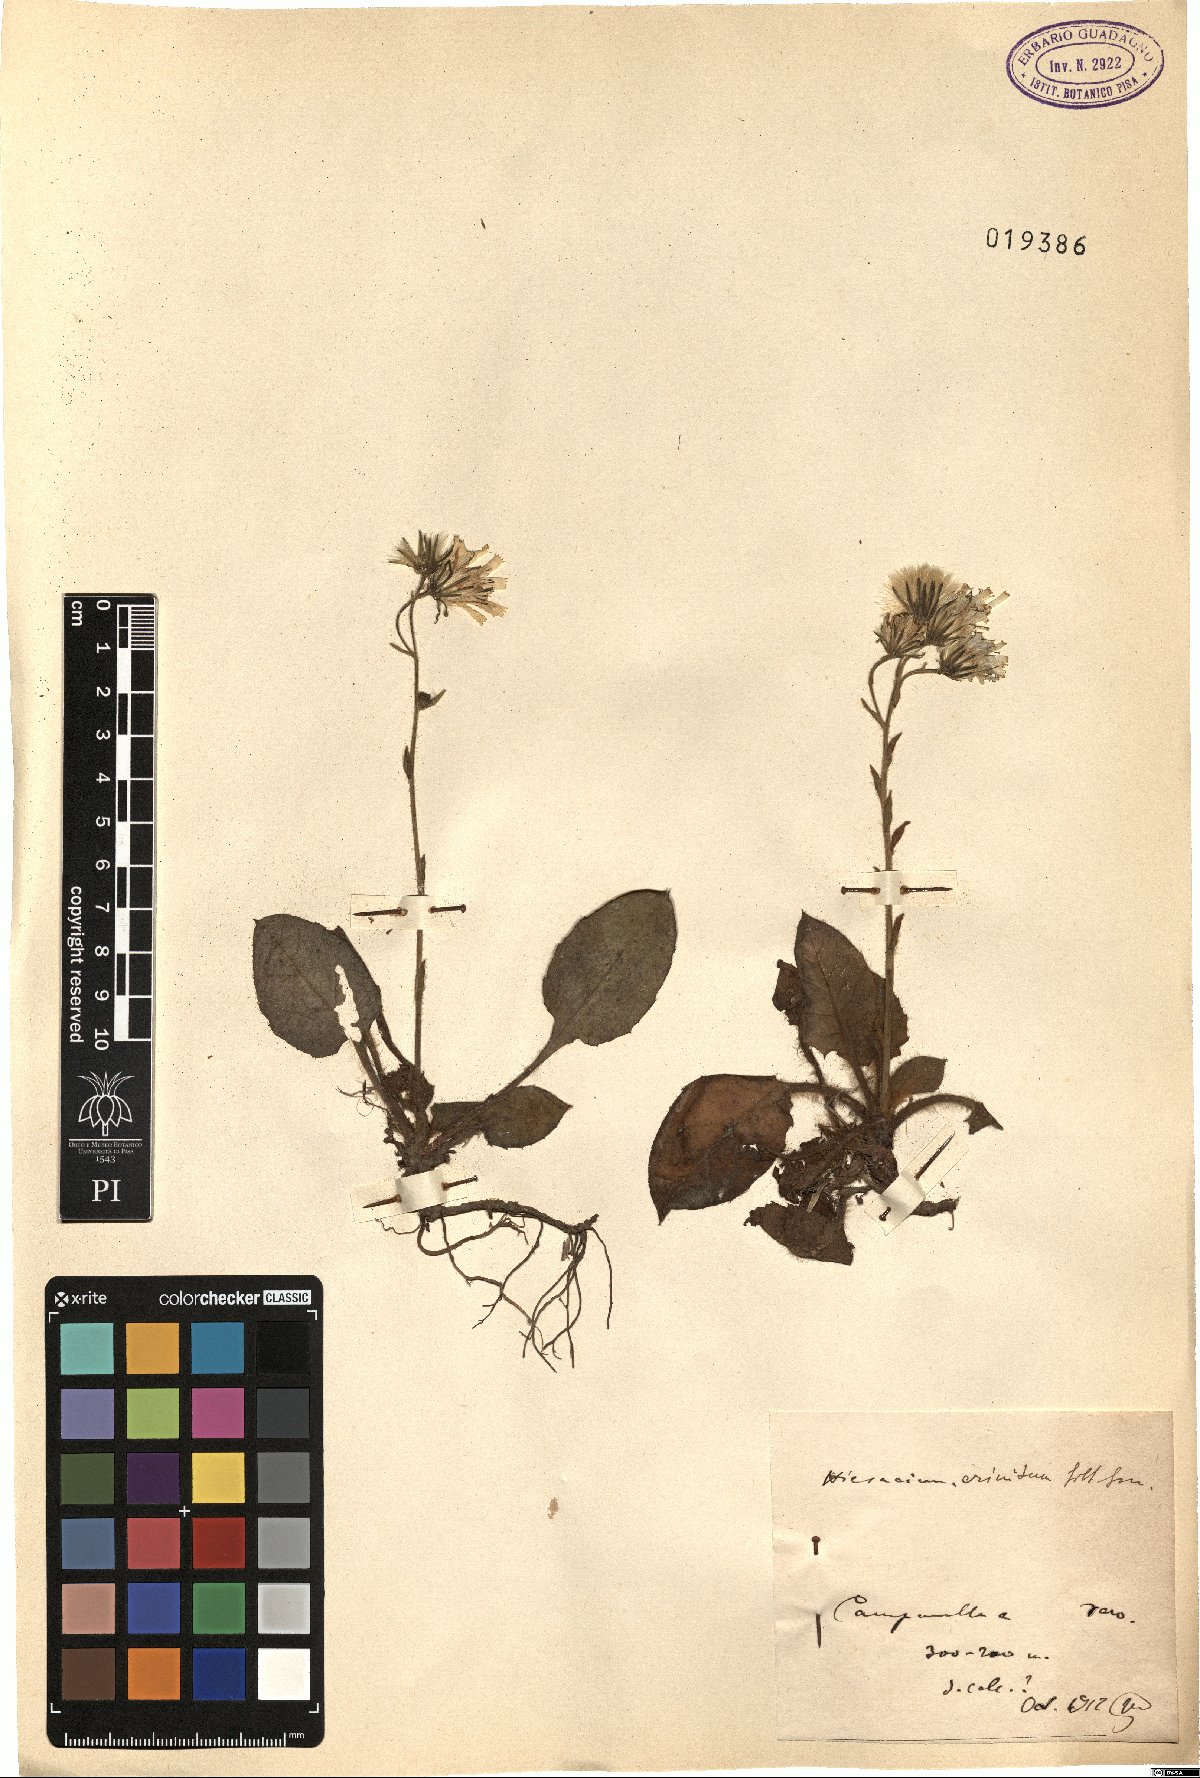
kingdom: Plantae
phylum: Tracheophyta
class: Magnoliopsida
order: Asterales
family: Asteraceae
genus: Hieracium
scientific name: Hieracium racemosum
